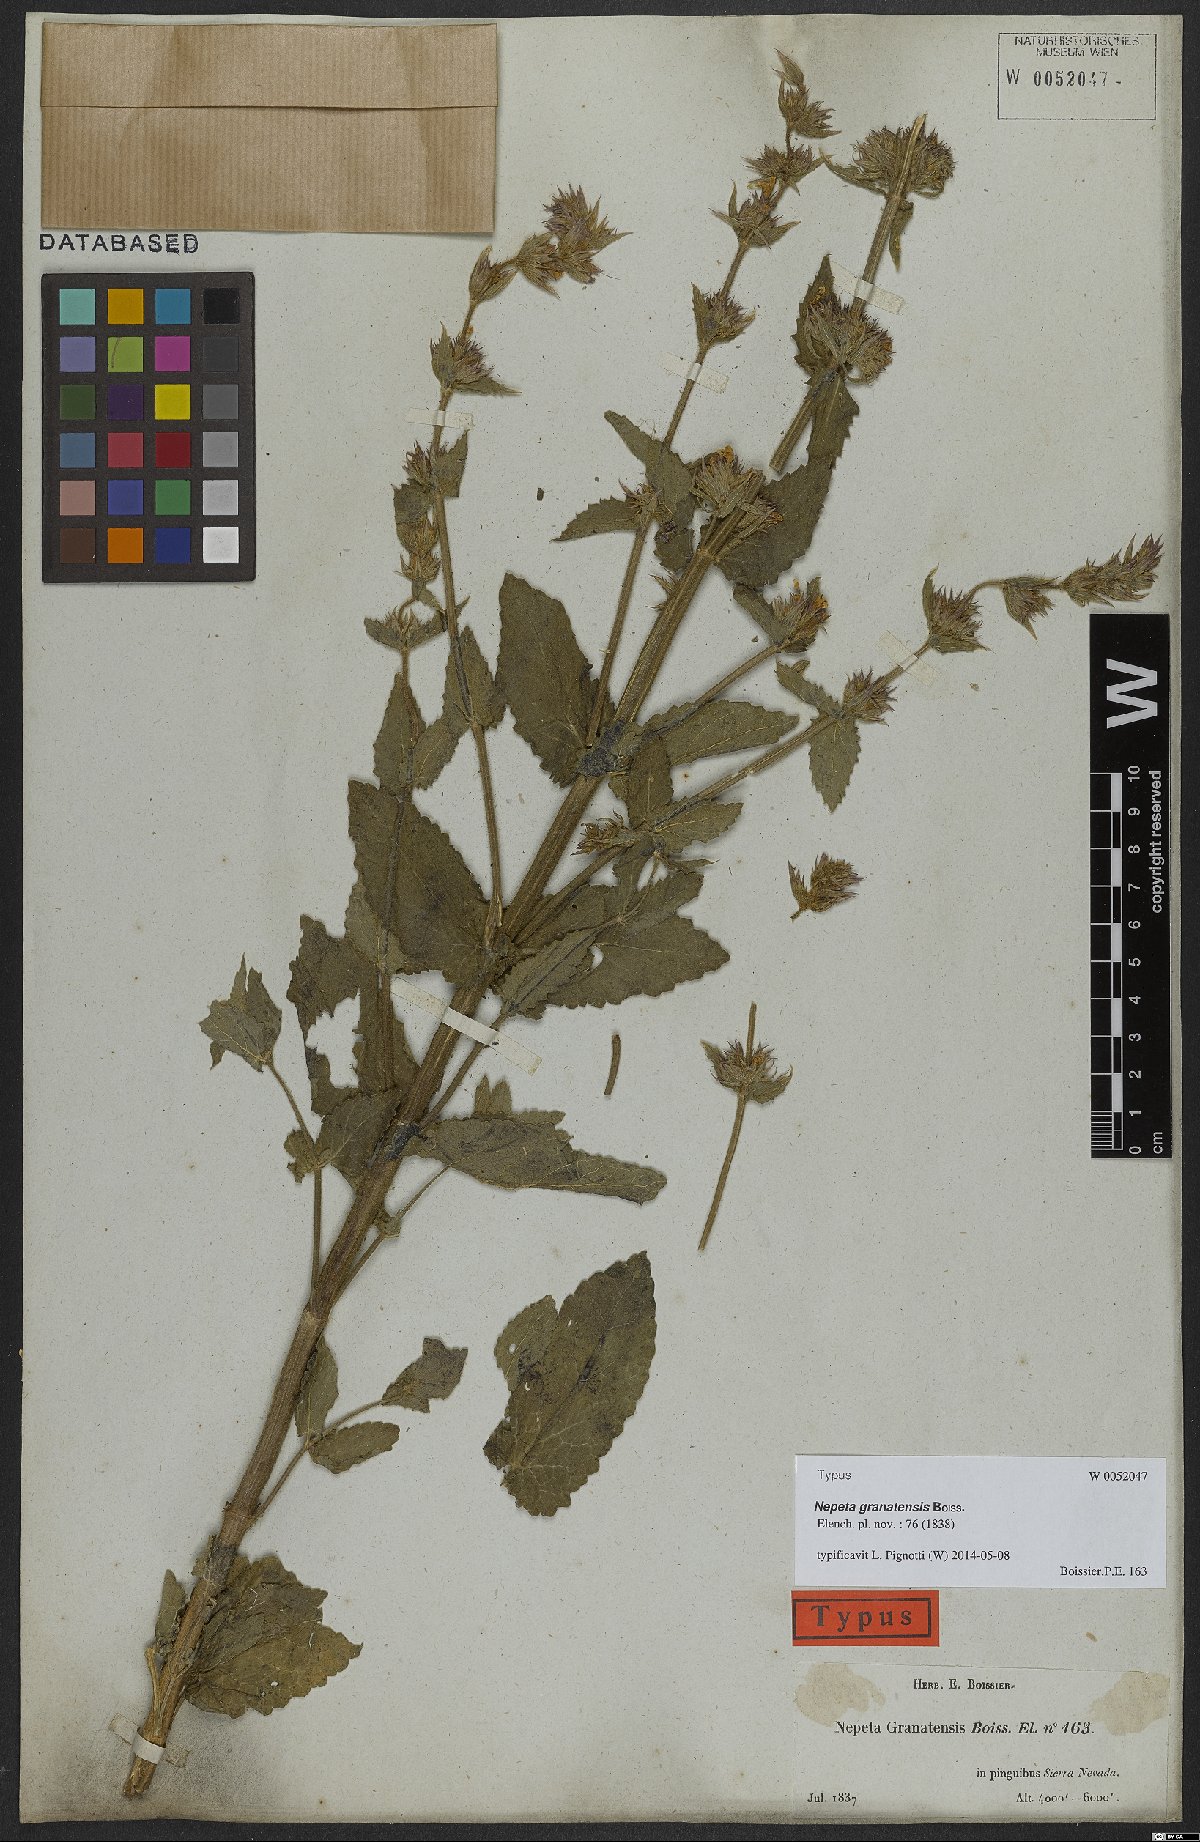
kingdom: Plantae
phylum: Tracheophyta
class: Magnoliopsida
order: Lamiales
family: Lamiaceae
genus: Nepeta
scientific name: Nepeta granatensis
